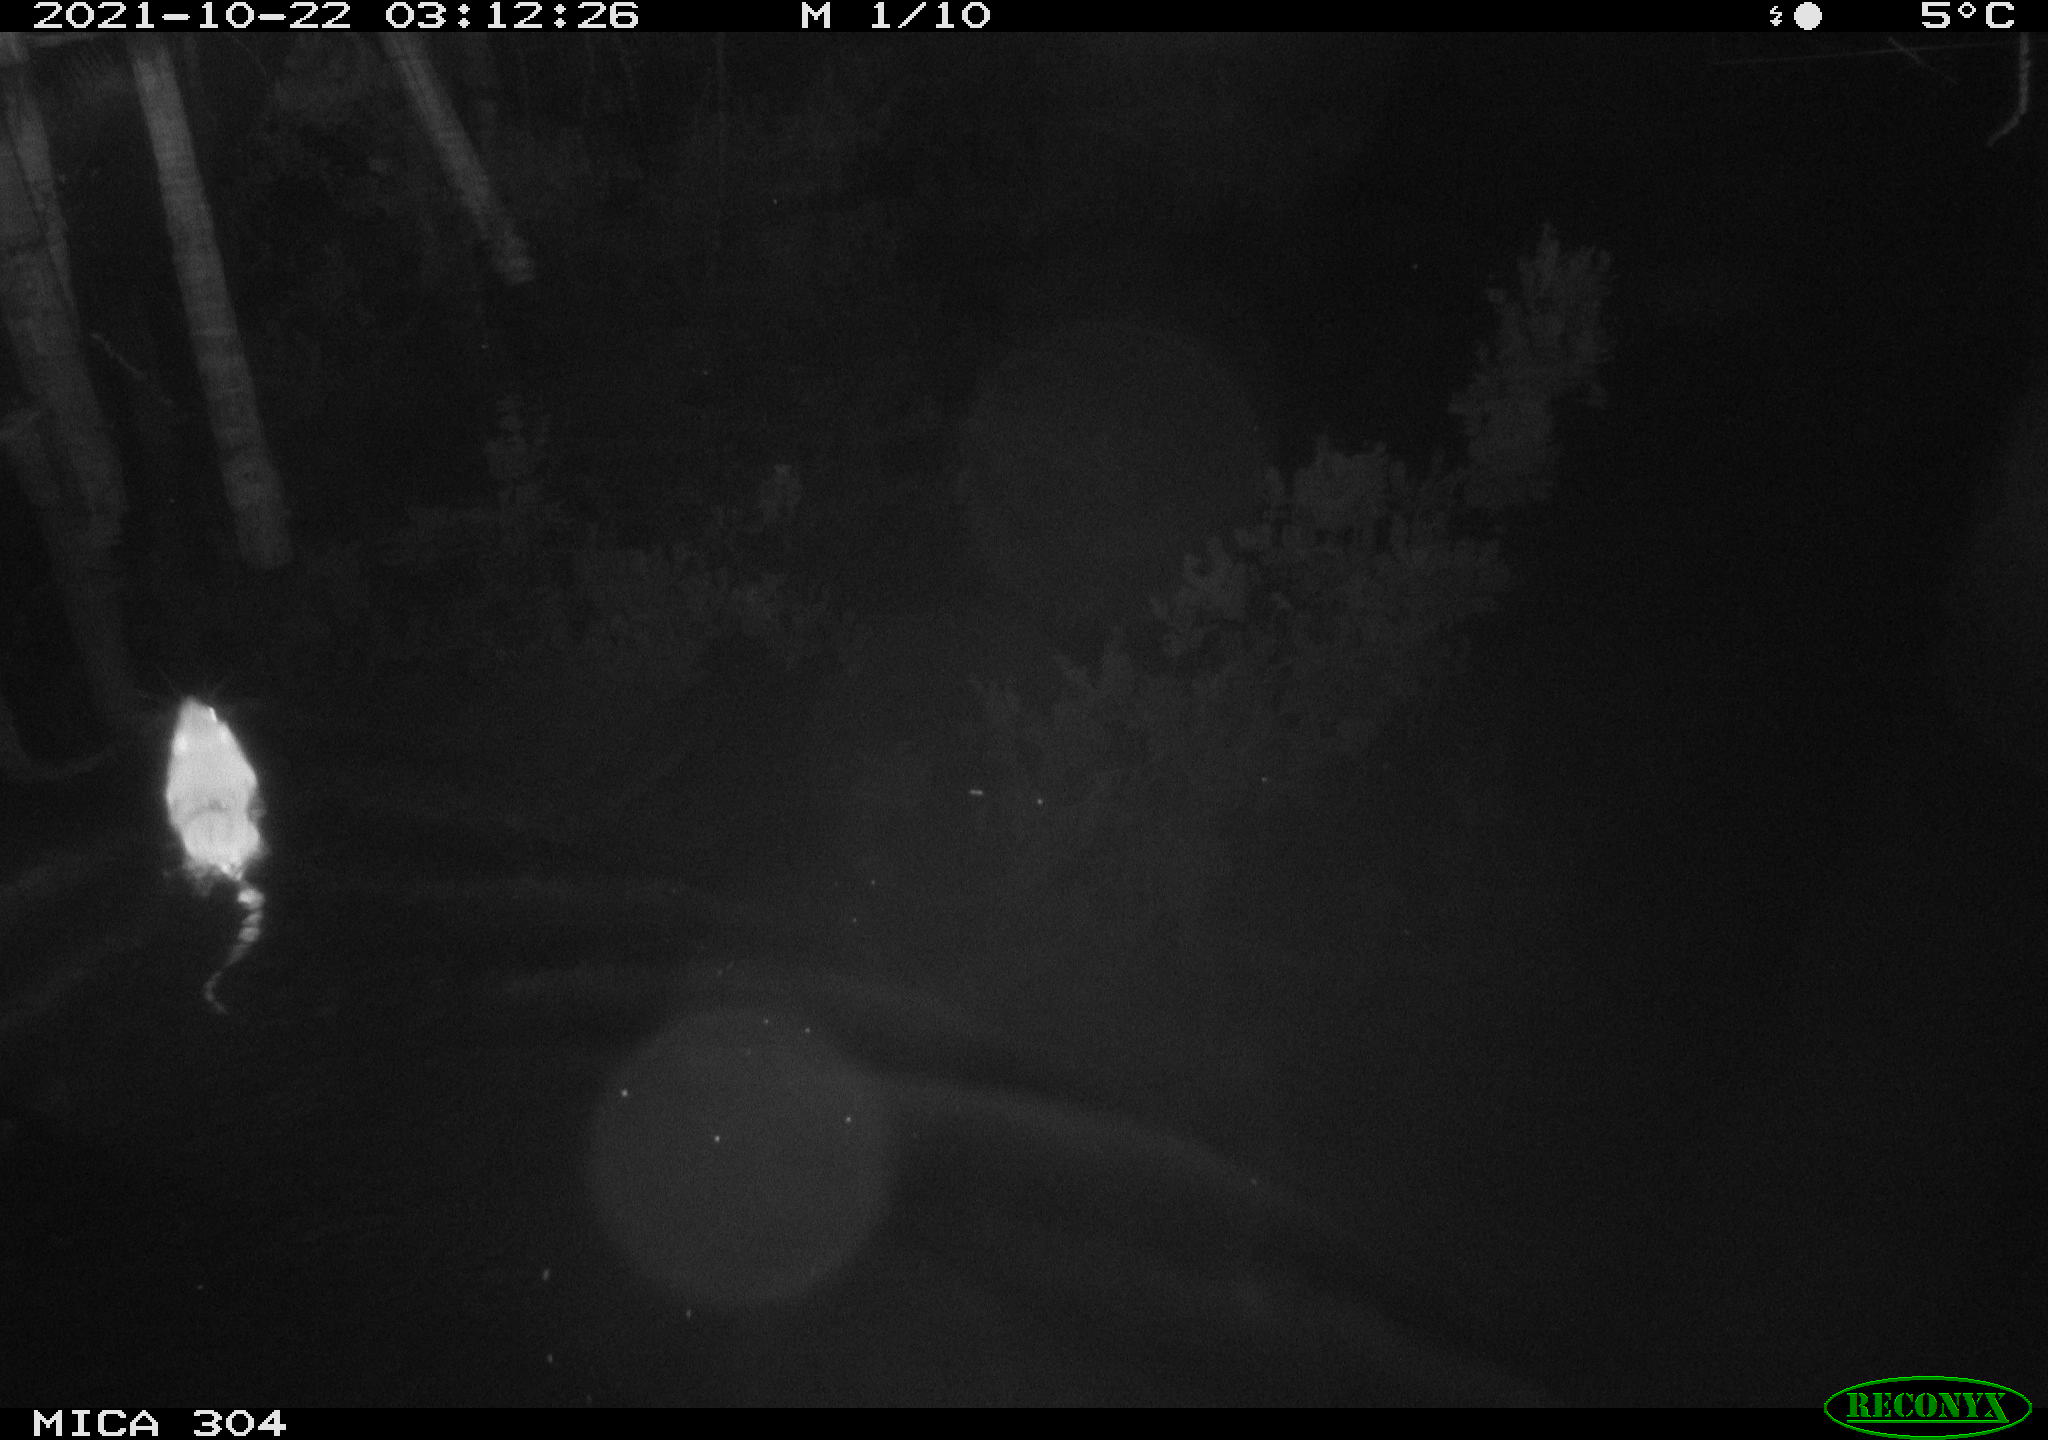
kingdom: Animalia
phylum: Chordata
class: Mammalia
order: Rodentia
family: Cricetidae
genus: Ondatra
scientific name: Ondatra zibethicus
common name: Muskrat
